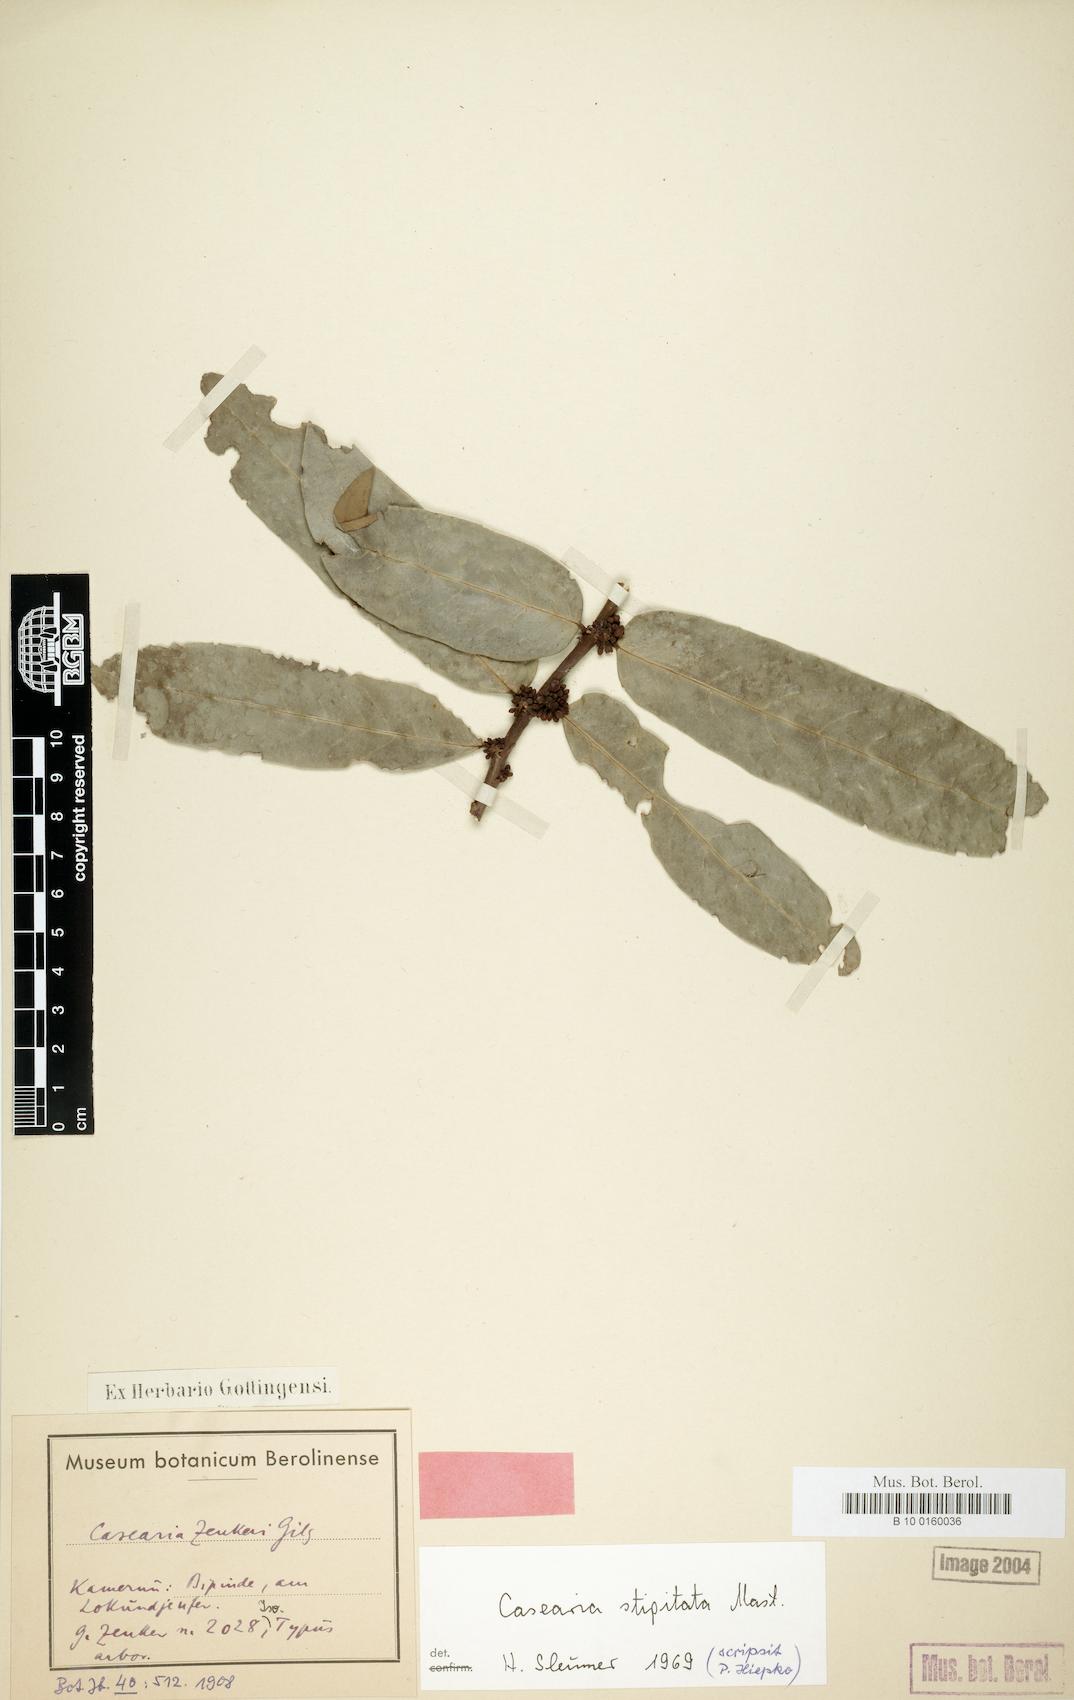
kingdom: Plantae
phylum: Tracheophyta
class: Magnoliopsida
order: Malpighiales
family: Salicaceae
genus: Casearia
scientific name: Casearia stipitata
